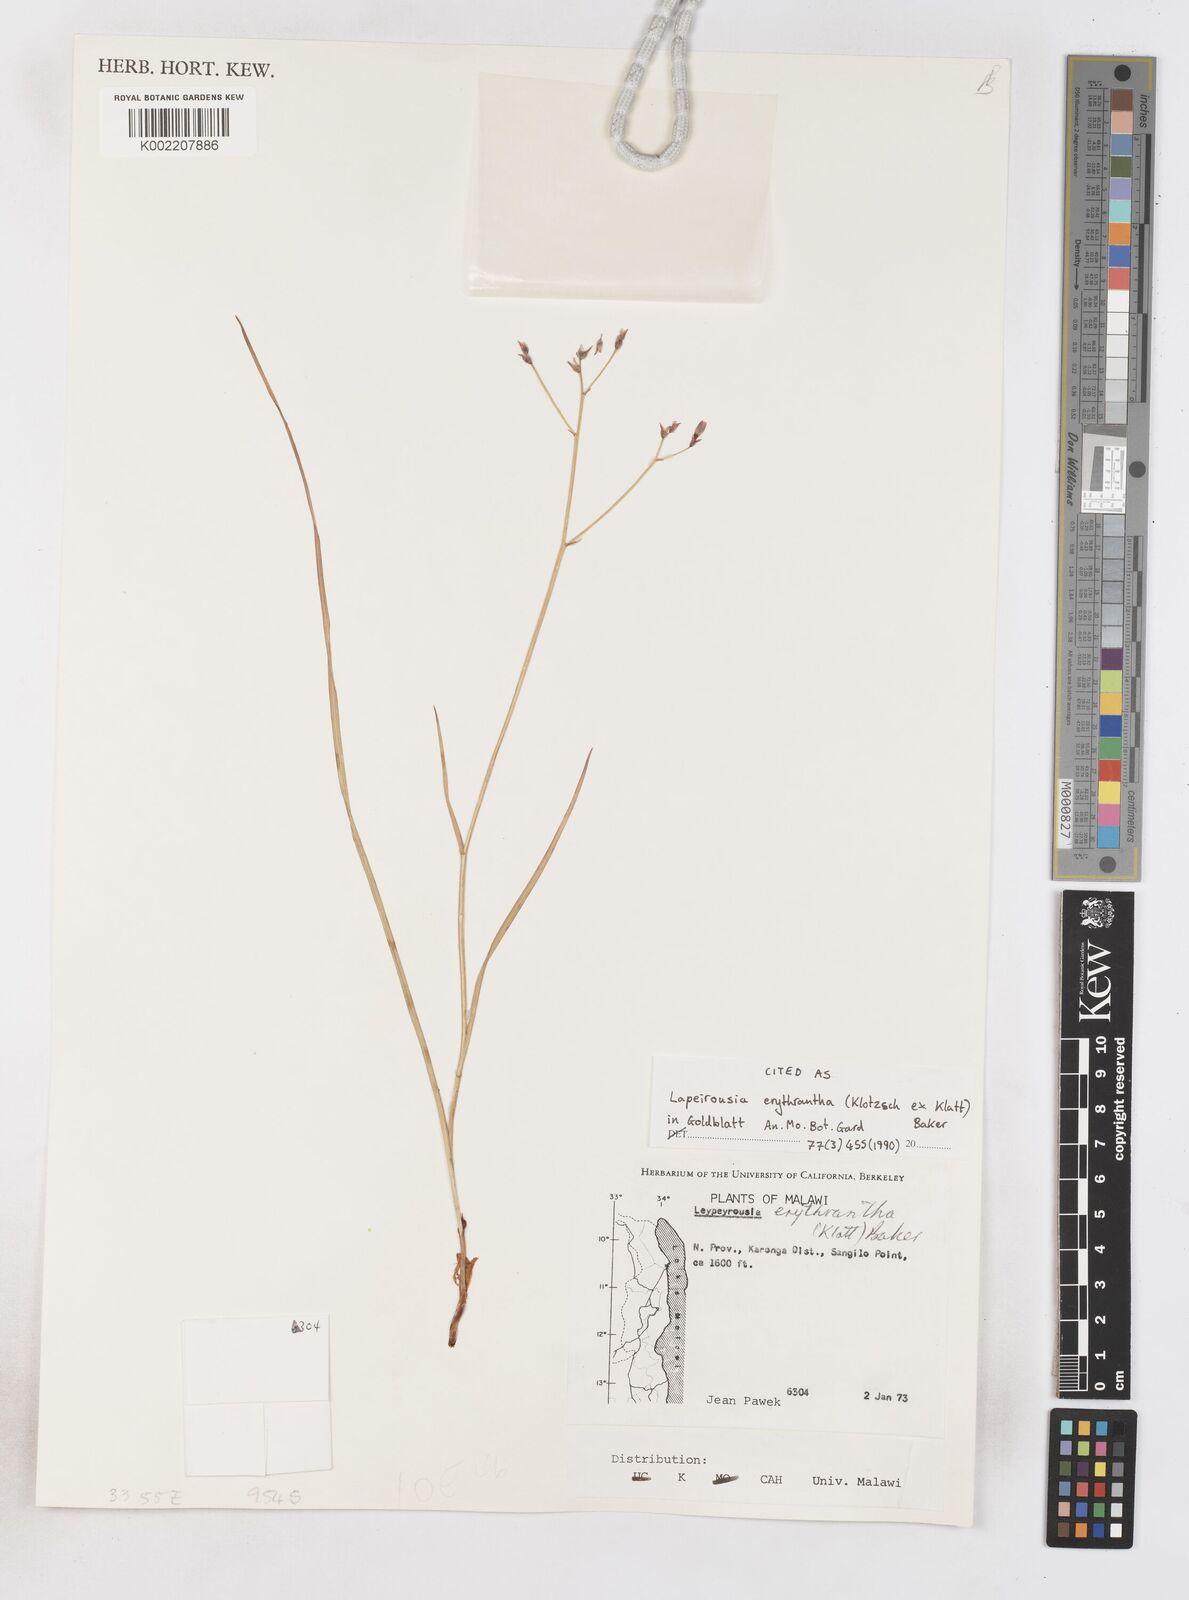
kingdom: Plantae
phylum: Tracheophyta
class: Liliopsida
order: Asparagales
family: Iridaceae
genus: Afrosolen
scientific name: Afrosolen erythranthus
